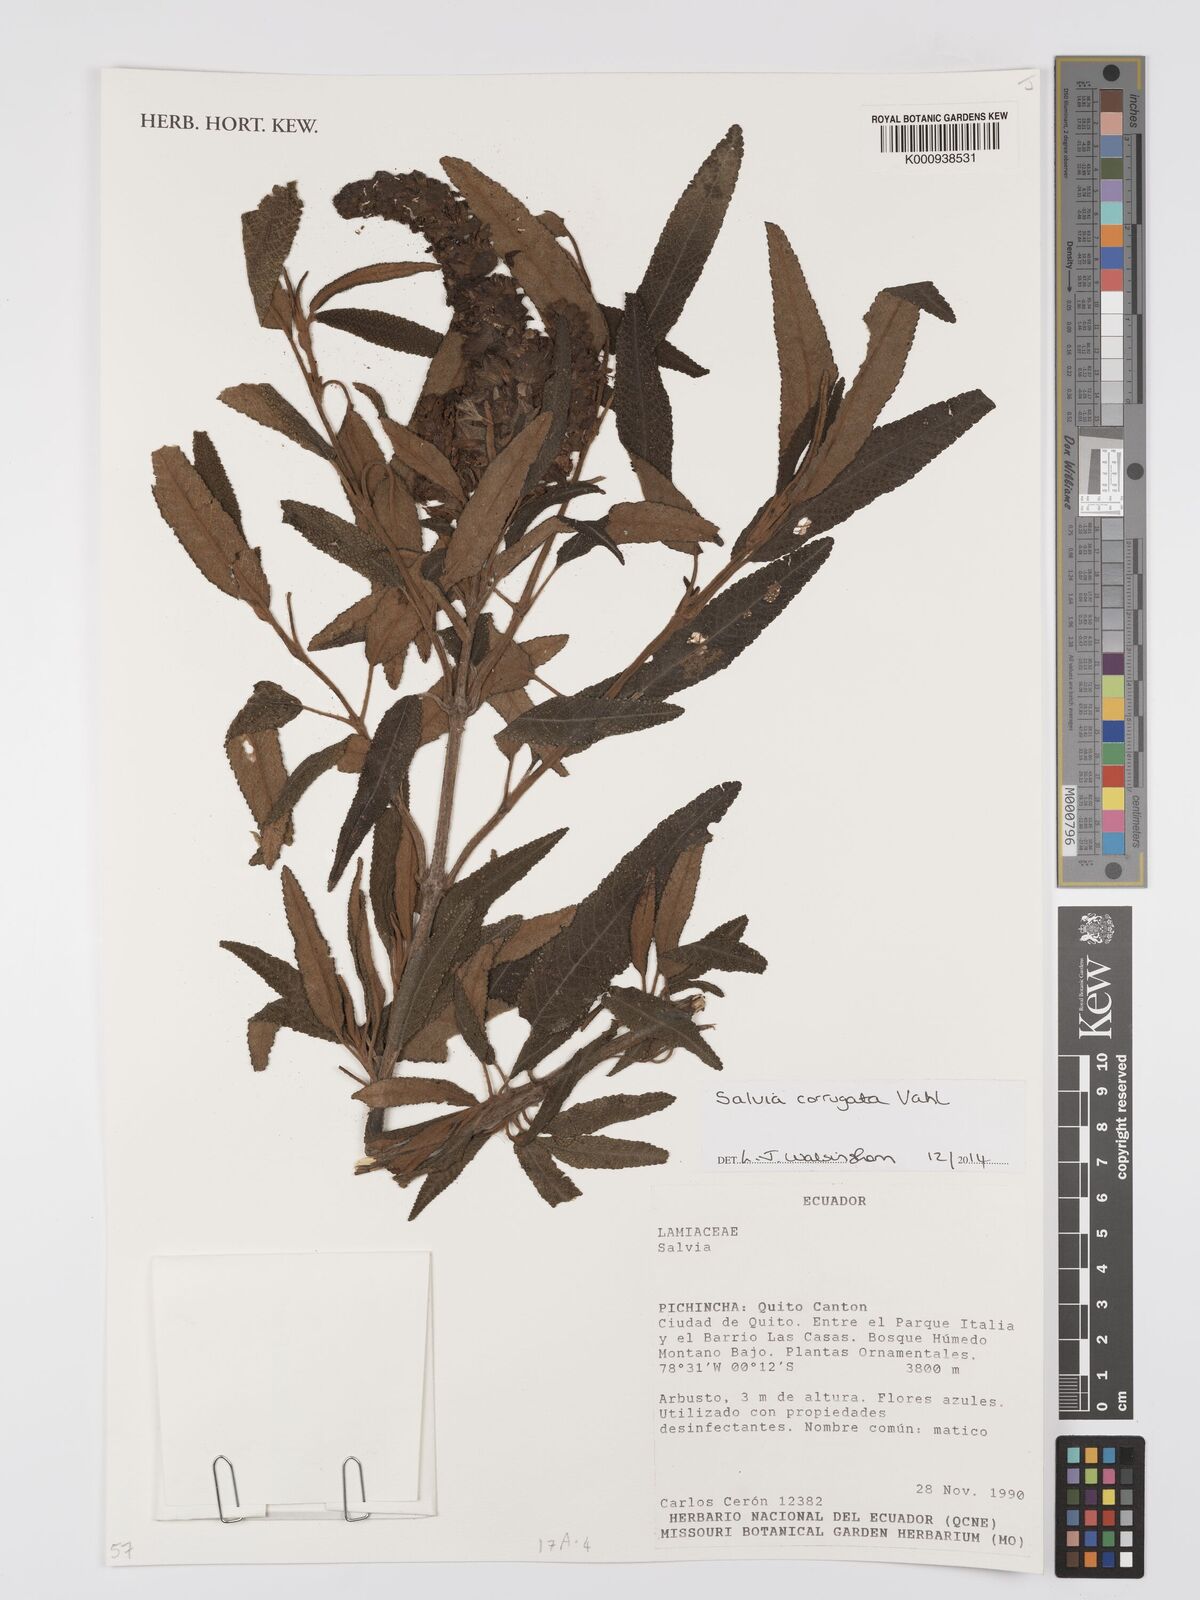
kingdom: Plantae
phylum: Tracheophyta
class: Magnoliopsida
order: Lamiales
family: Lamiaceae
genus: Salvia
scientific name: Salvia corrugata
